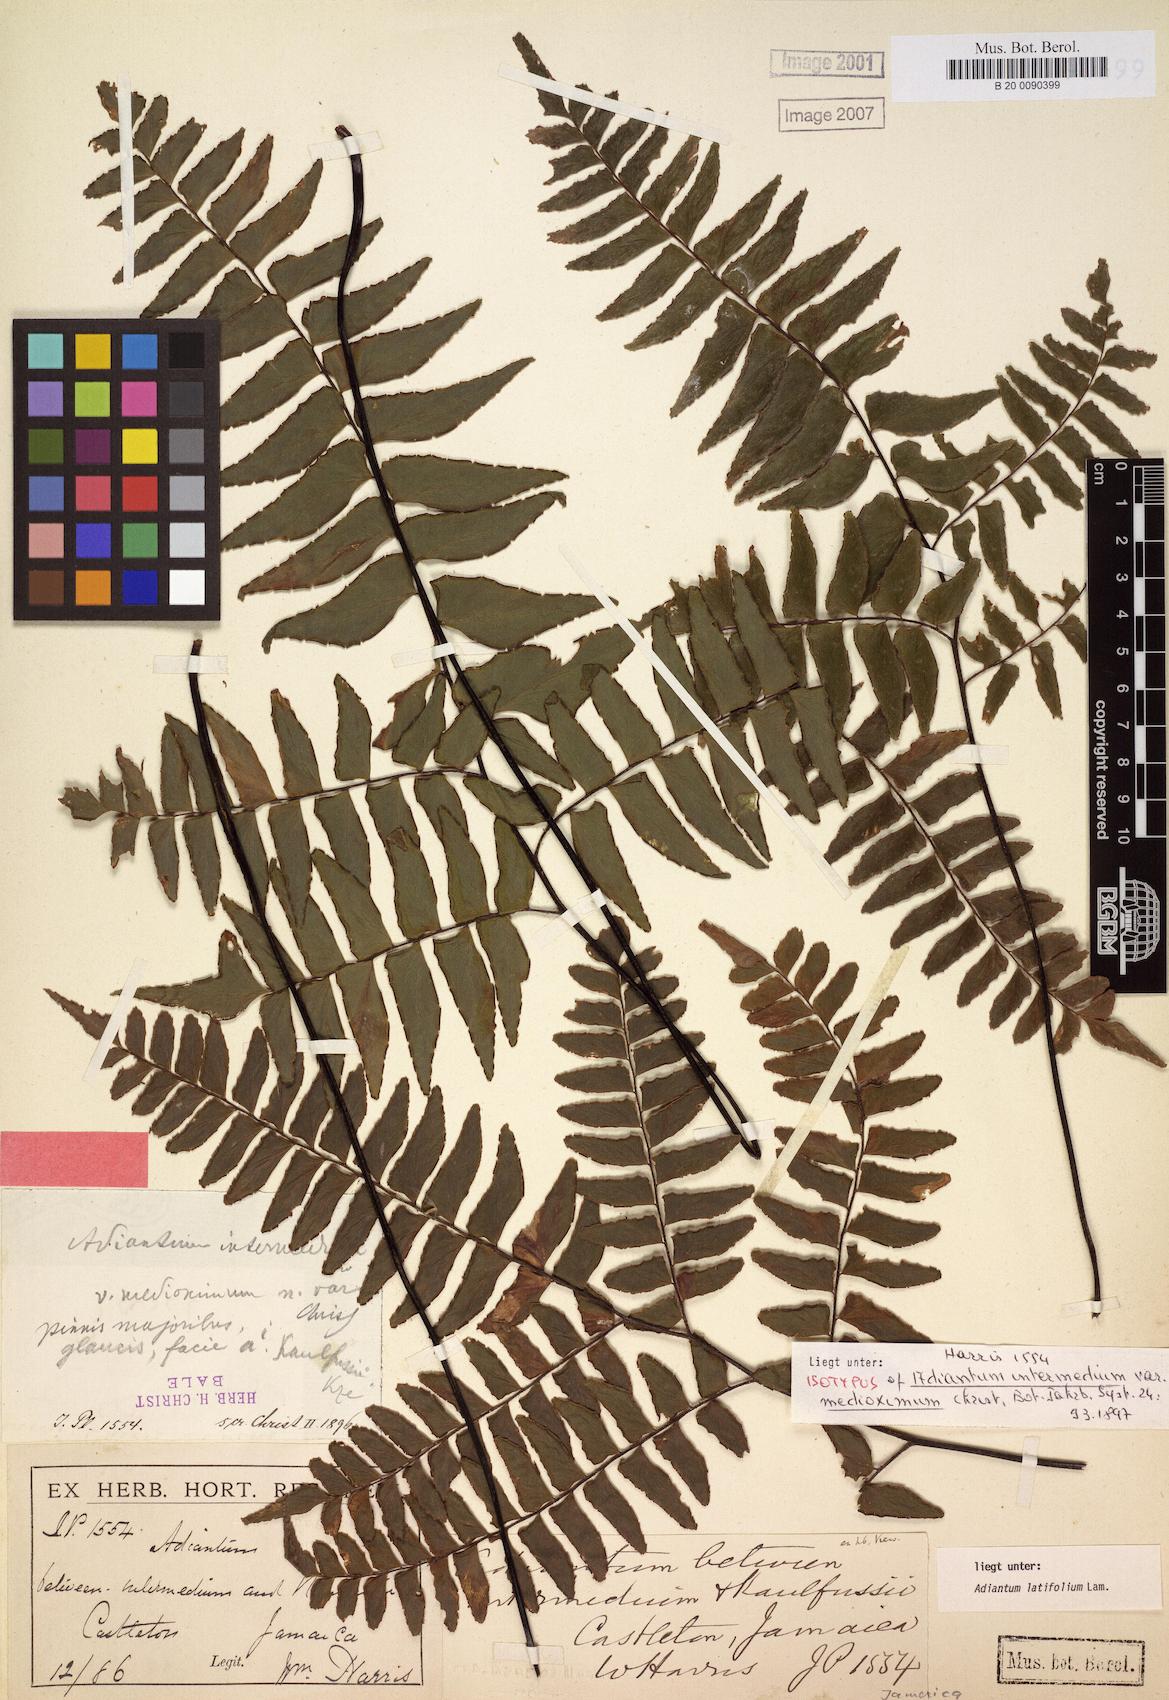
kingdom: Plantae
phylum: Tracheophyta
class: Polypodiopsida
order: Polypodiales
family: Pteridaceae
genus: Adiantum
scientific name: Adiantum latifolium
